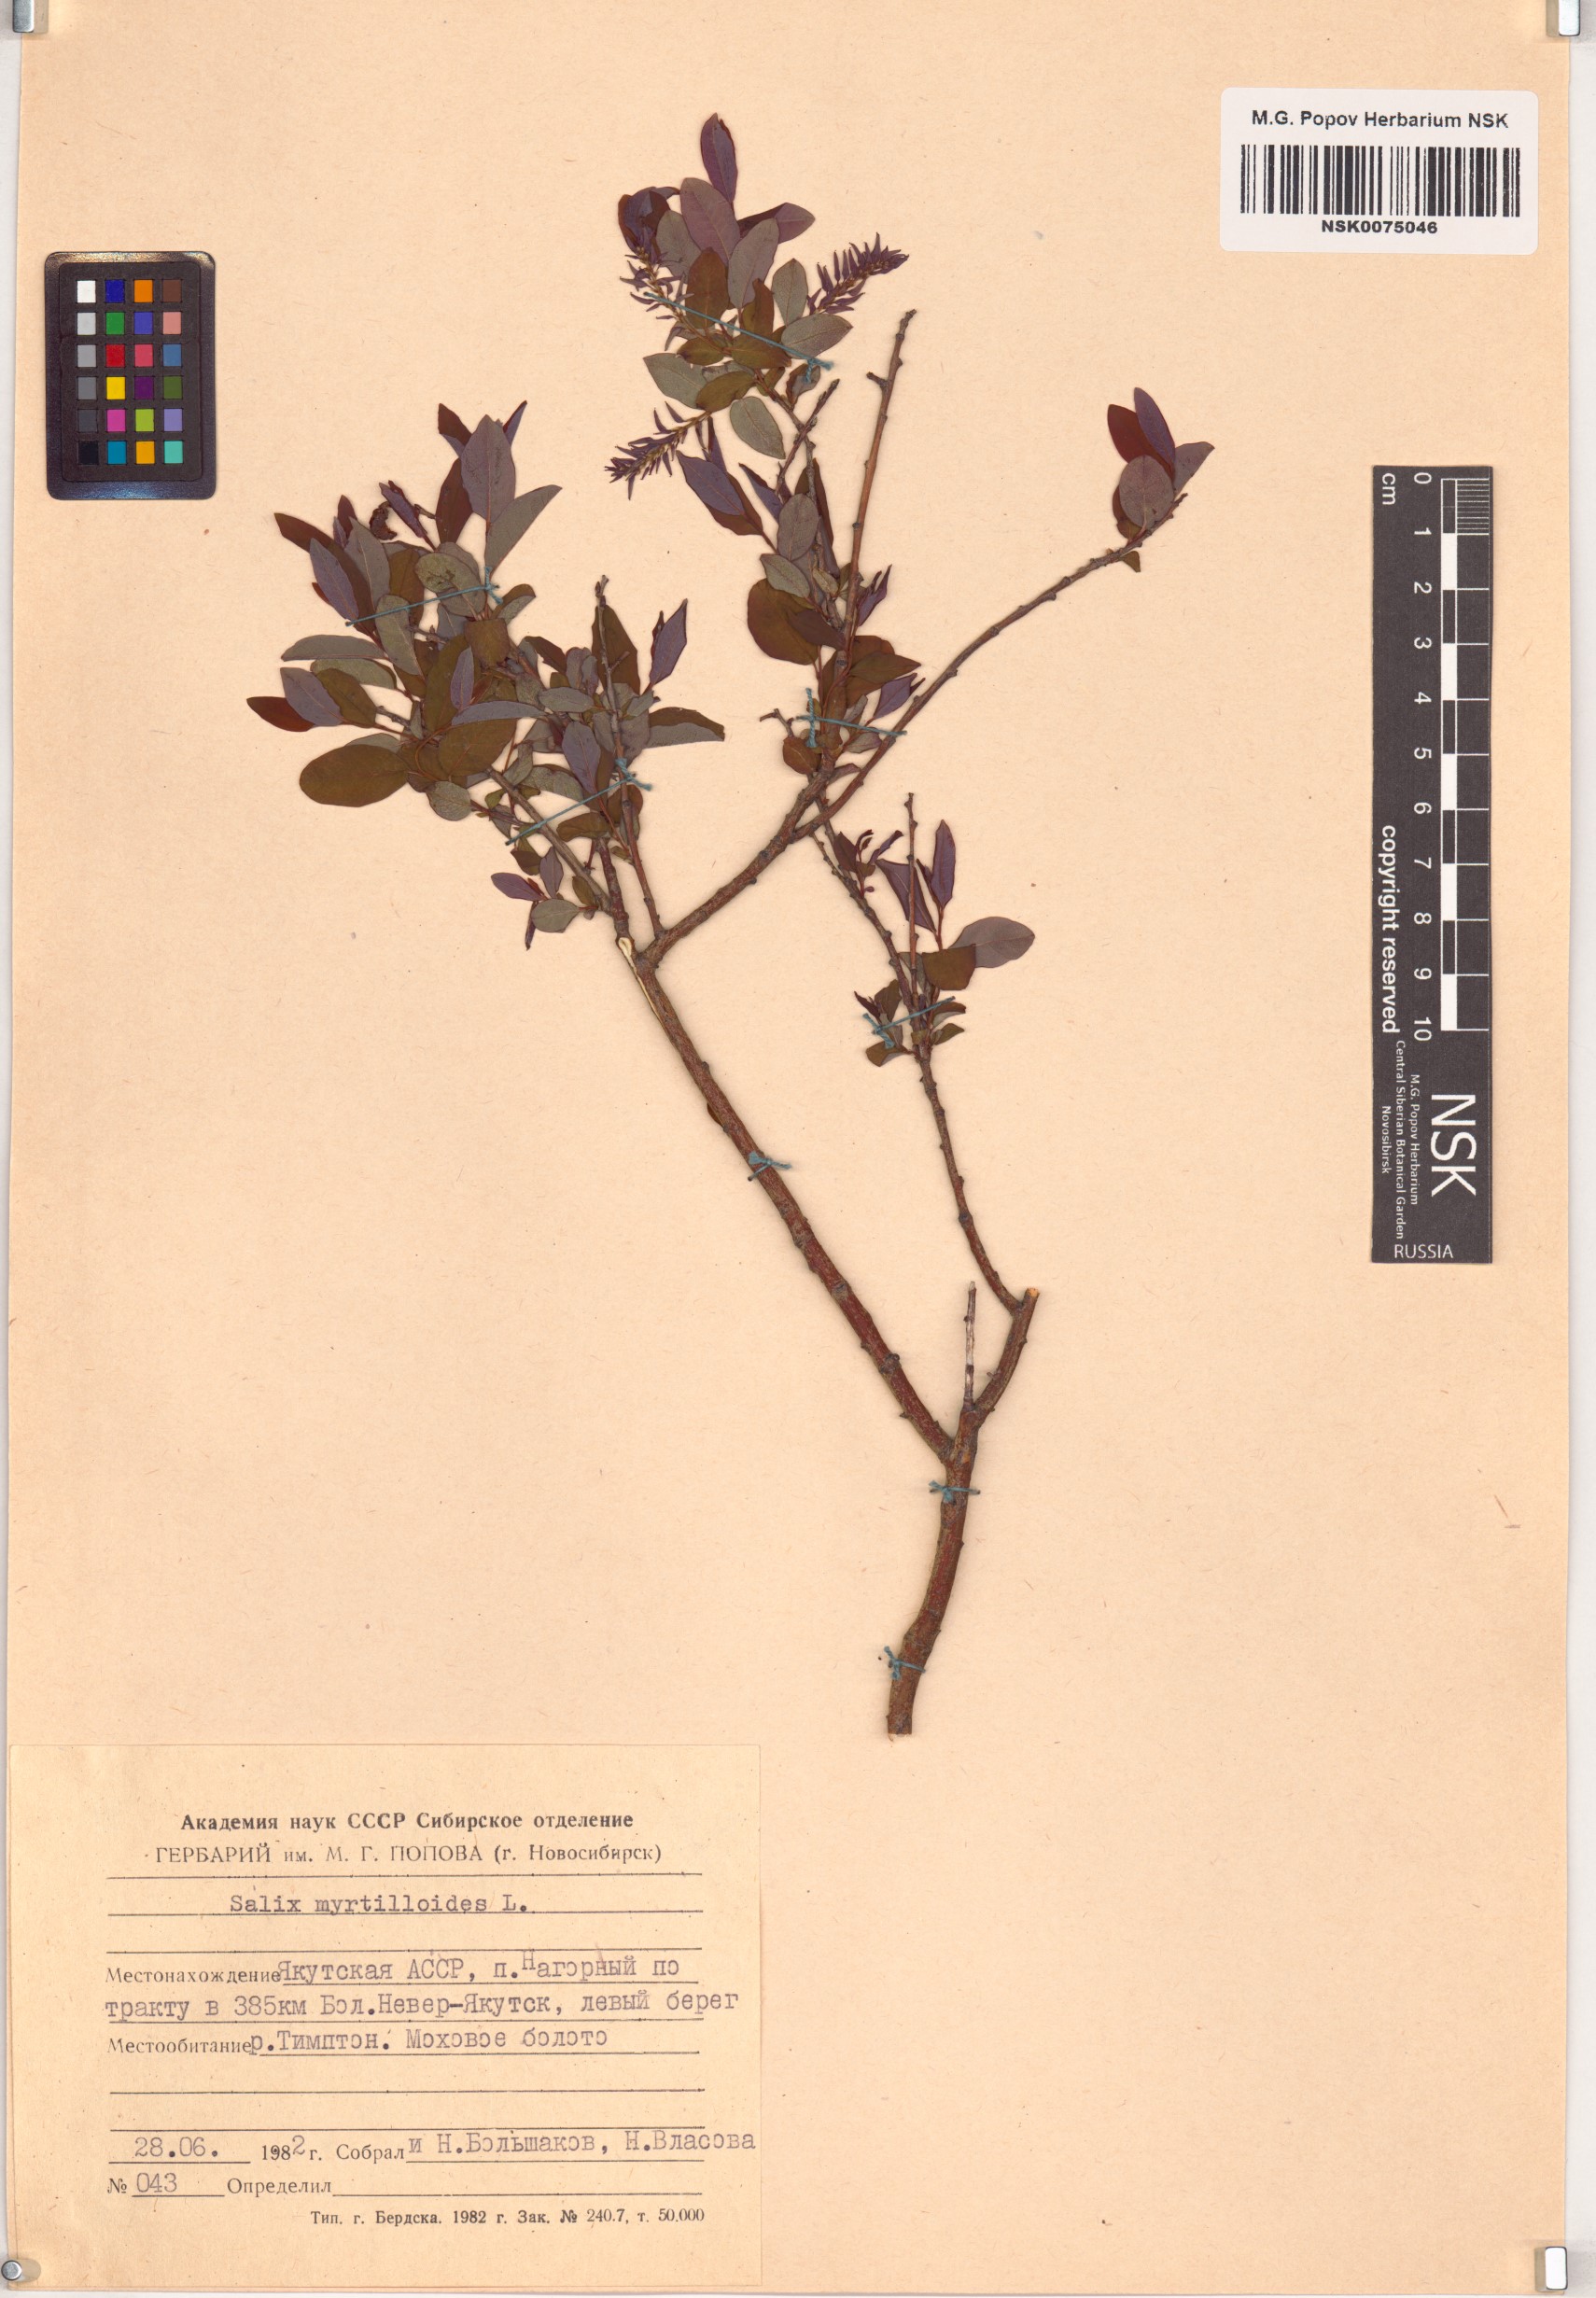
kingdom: Plantae
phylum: Tracheophyta
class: Magnoliopsida
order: Malpighiales
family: Salicaceae
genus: Salix
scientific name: Salix myrtilloides
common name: Myrtle-leaved willow
